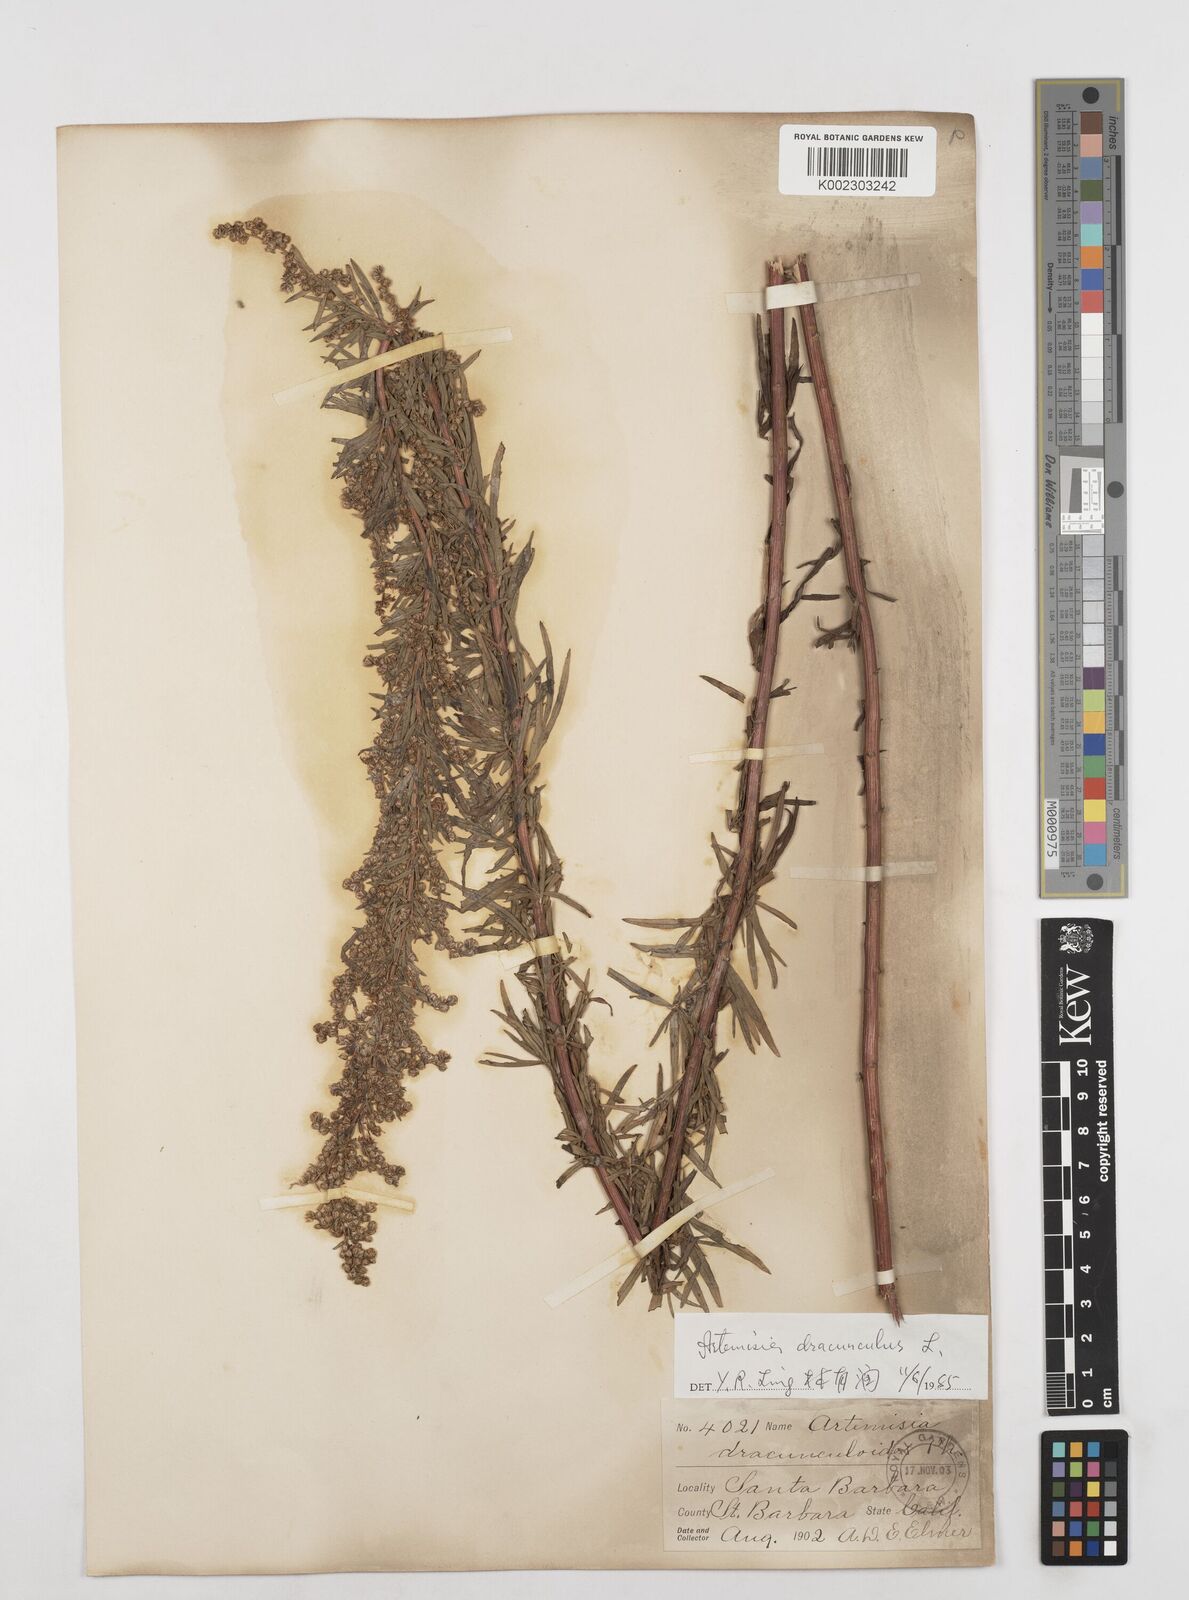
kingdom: Plantae
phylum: Tracheophyta
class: Magnoliopsida
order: Asterales
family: Asteraceae
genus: Artemisia
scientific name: Artemisia dracunculus
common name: Tarragon
